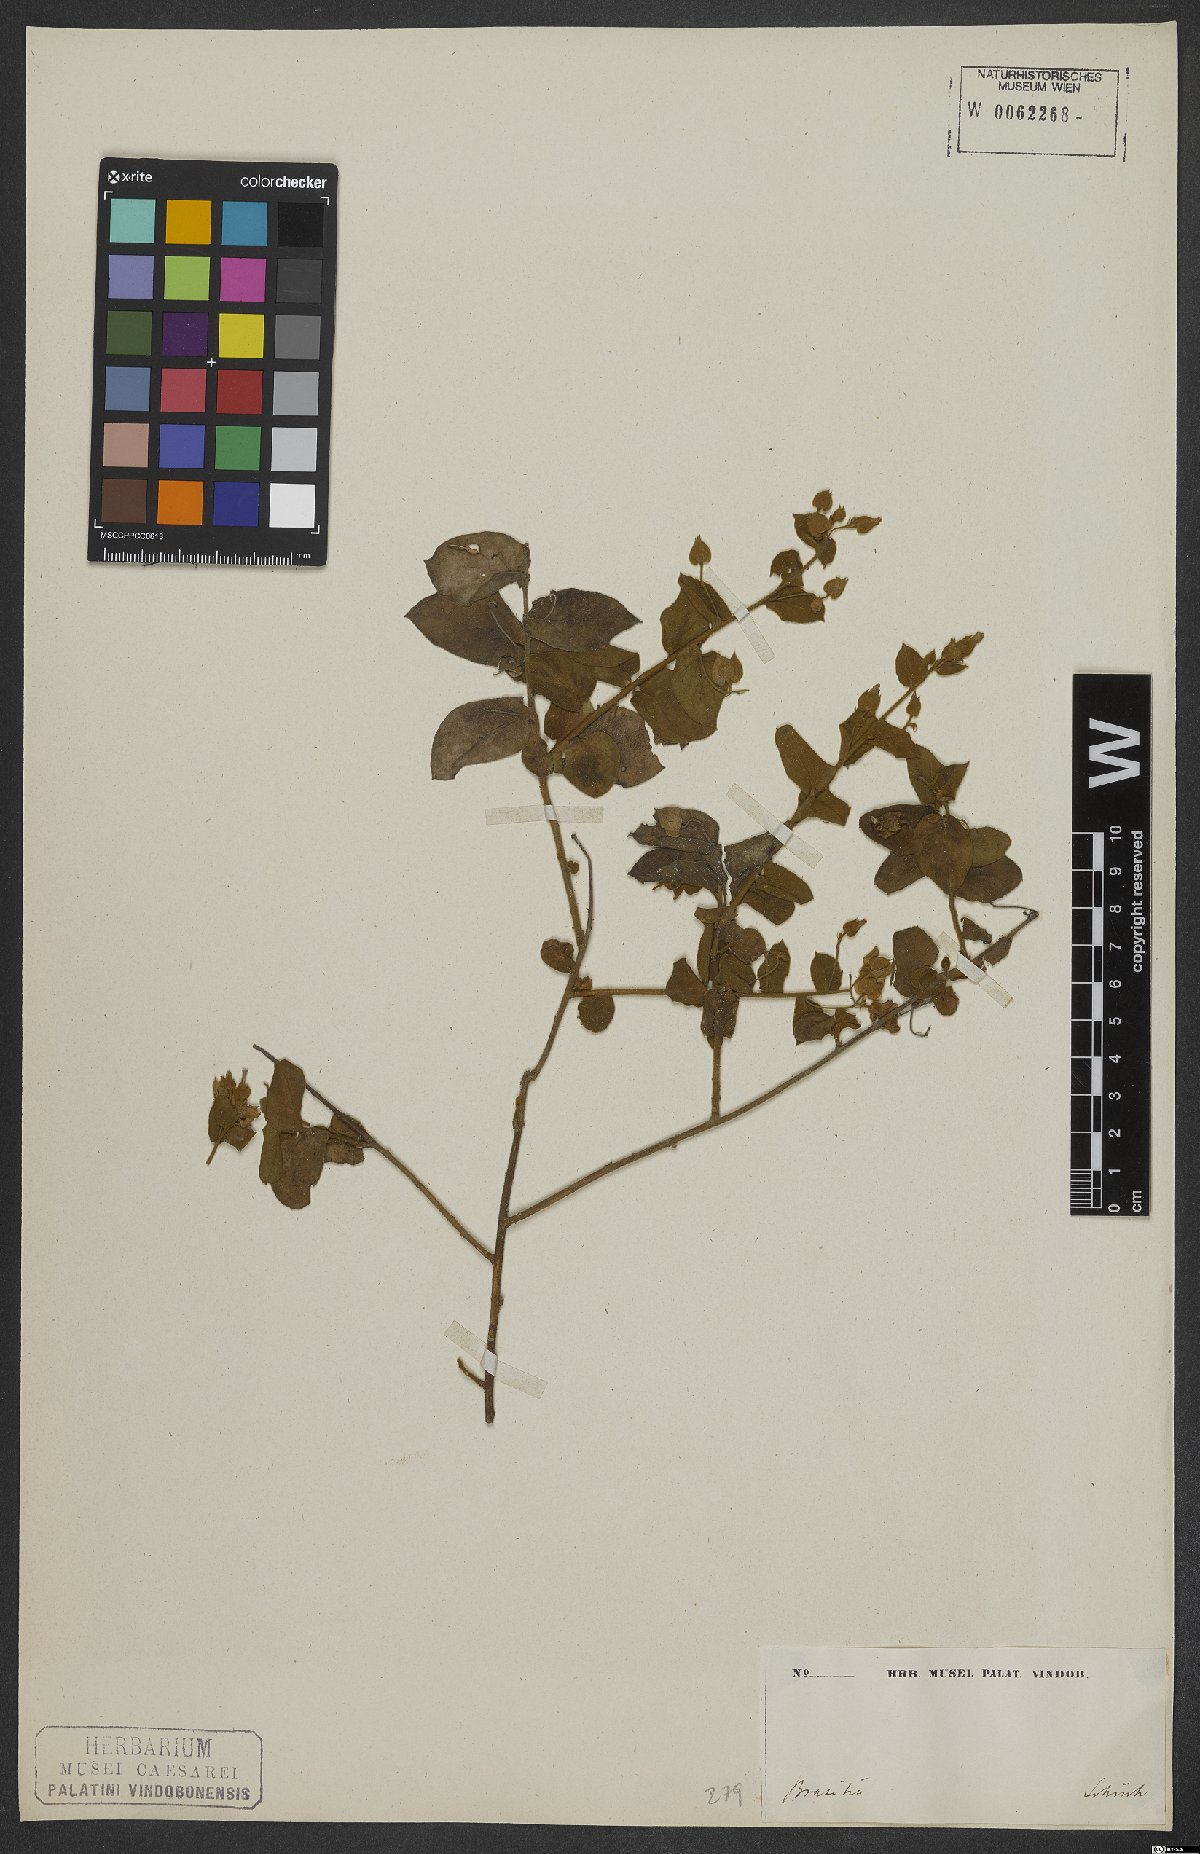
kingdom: Plantae
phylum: Tracheophyta
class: Magnoliopsida
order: Solanales
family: Convolvulaceae
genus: Jacquemontia
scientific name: Jacquemontia cumanensis
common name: Thicket clustervine
